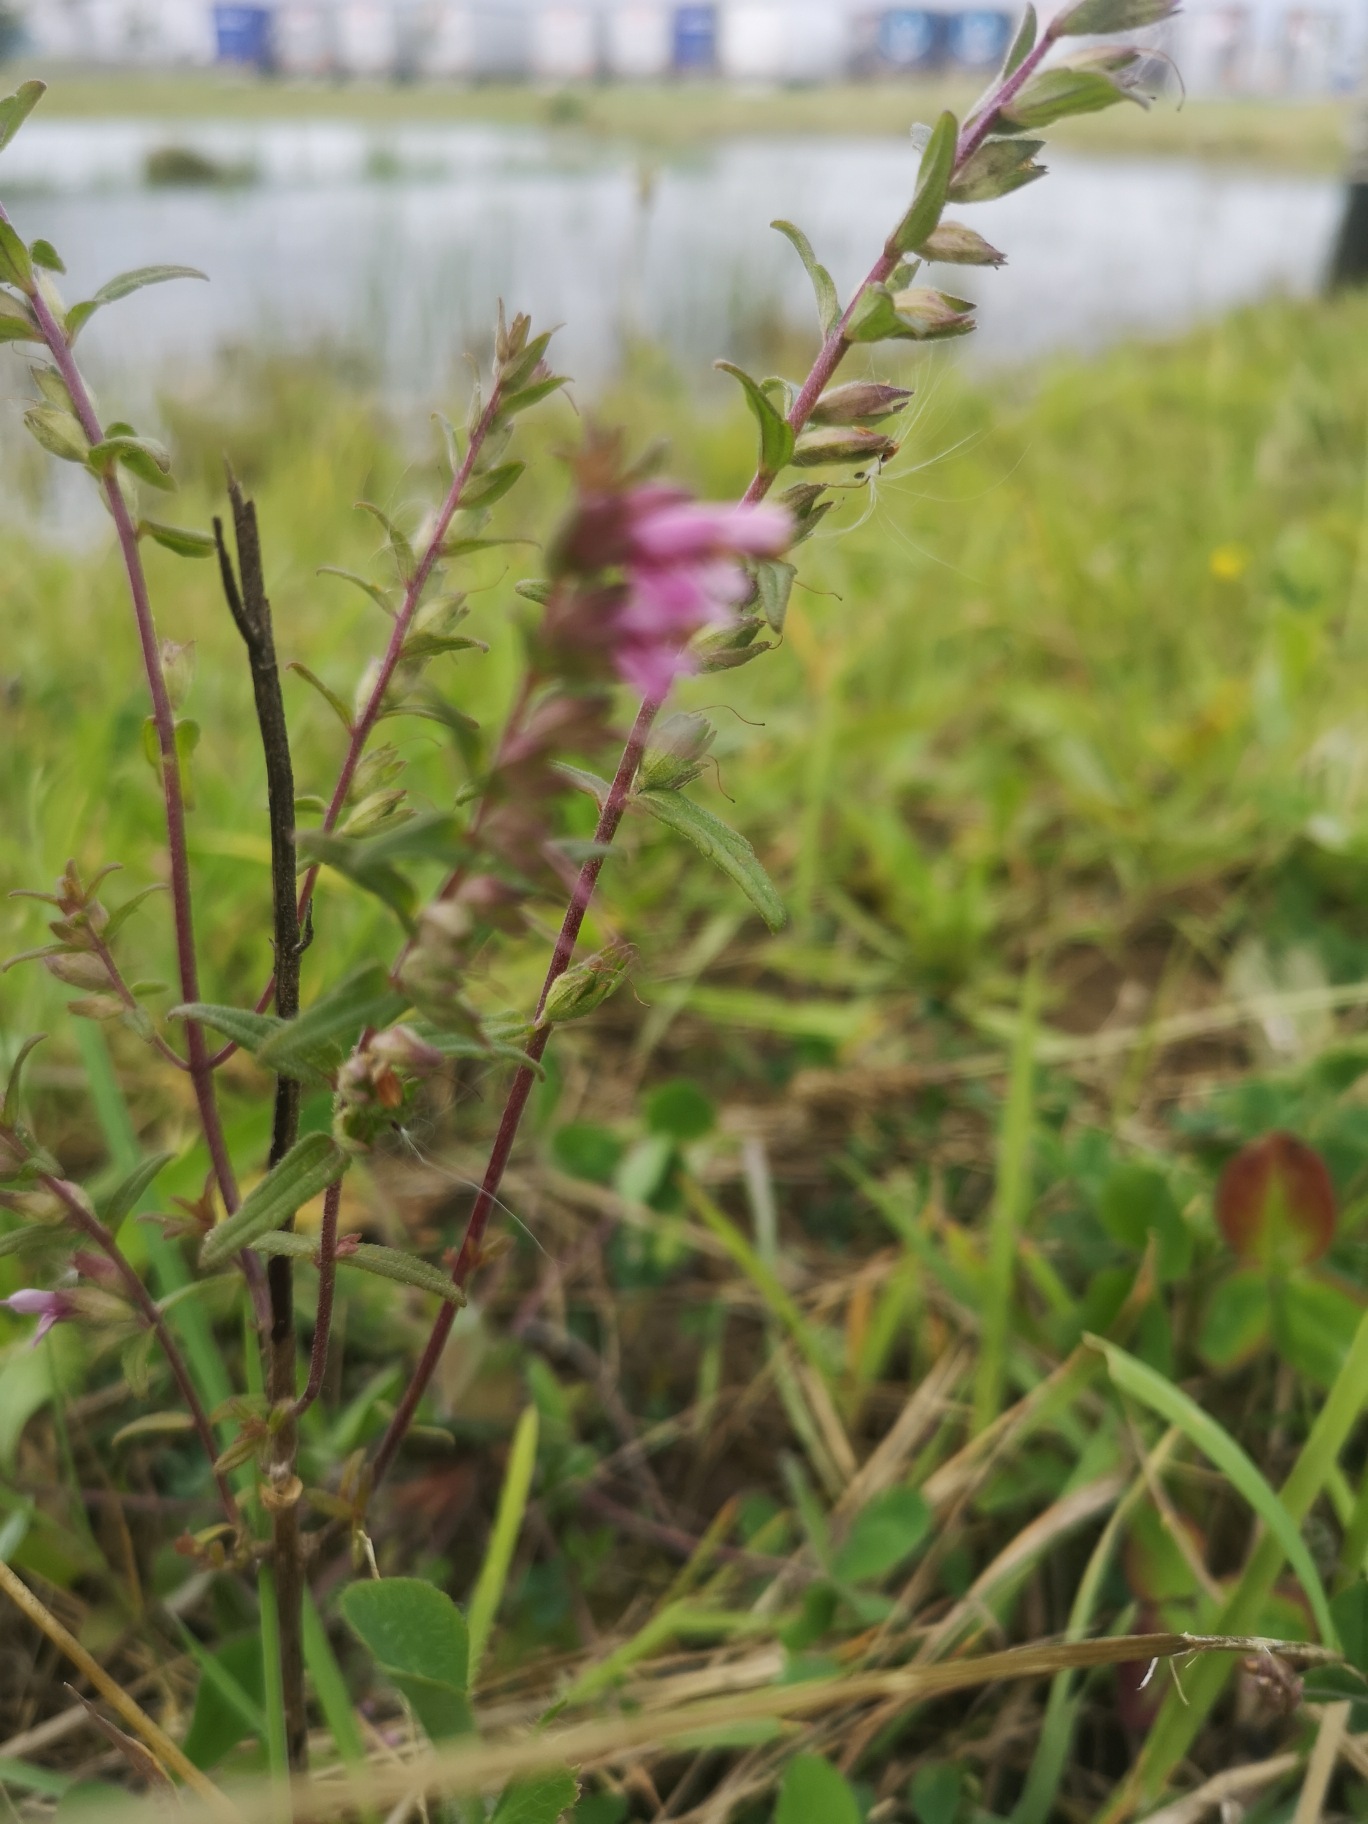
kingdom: Plantae
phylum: Tracheophyta
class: Magnoliopsida
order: Lamiales
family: Orobanchaceae
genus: Odontites
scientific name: Odontites vulgaris
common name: Høst-rødtop
